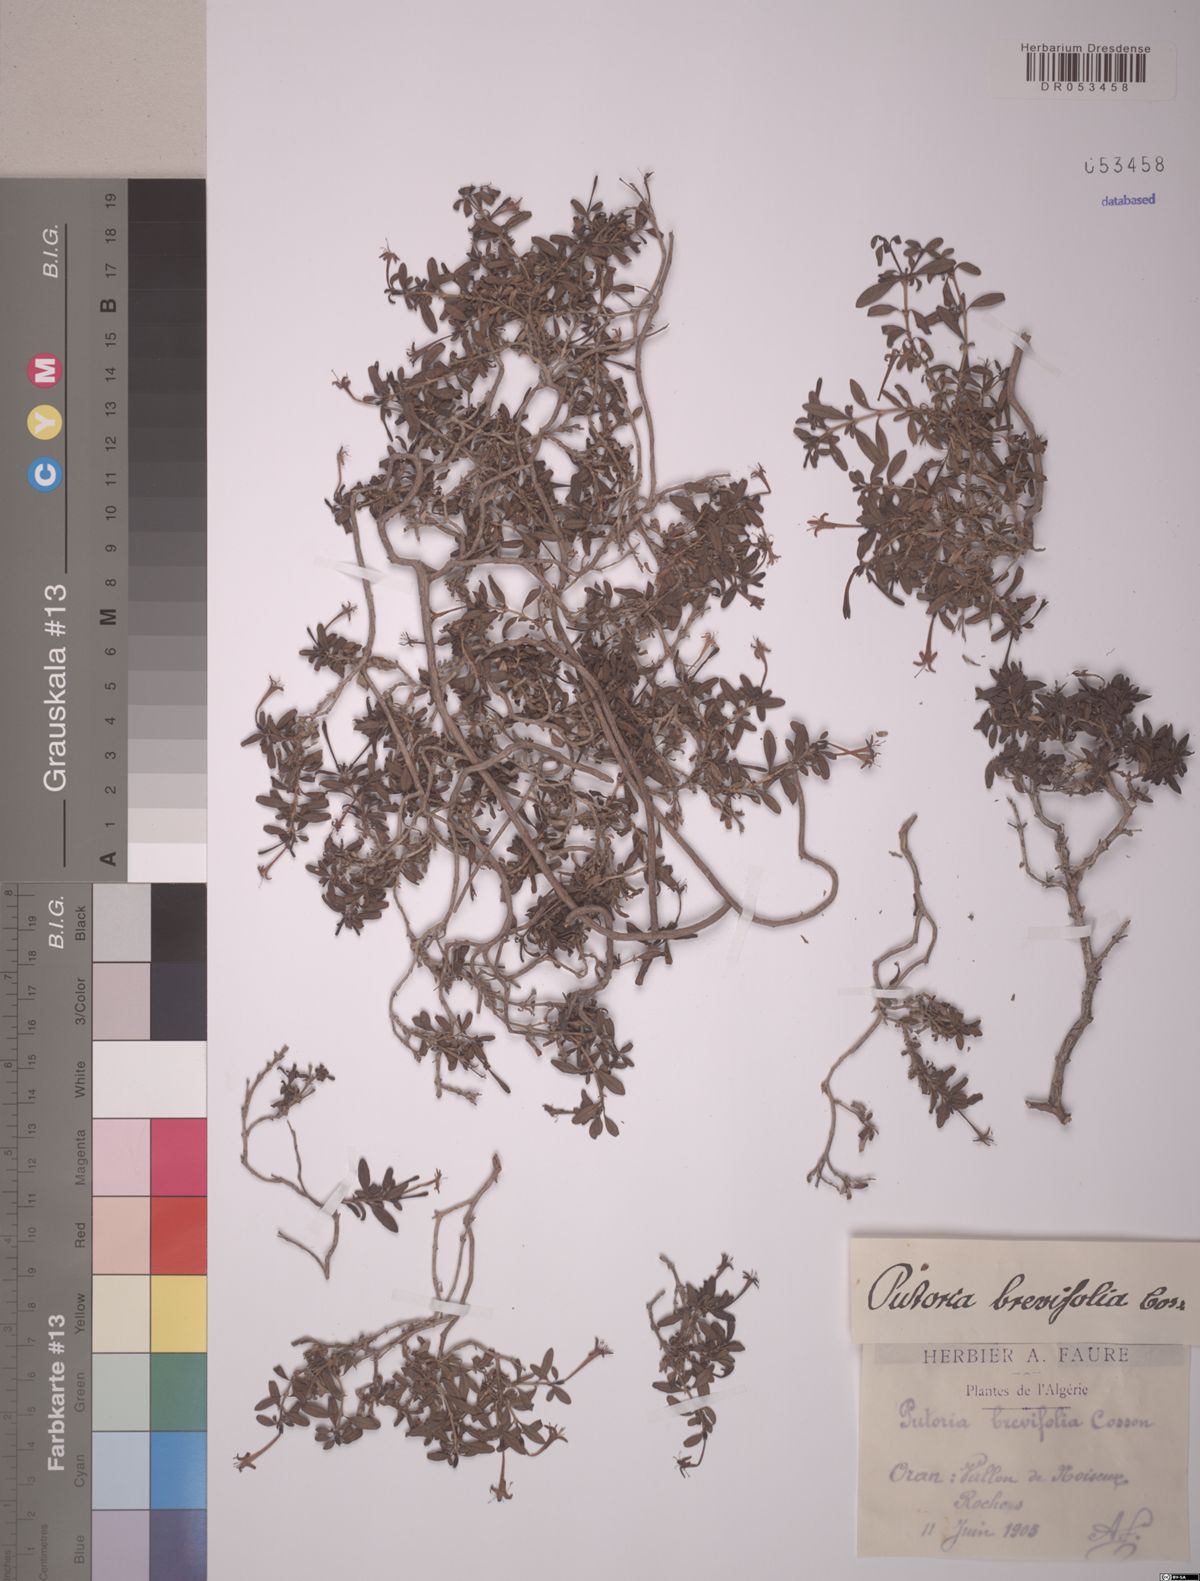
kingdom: Plantae
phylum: Tracheophyta
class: Magnoliopsida
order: Gentianales
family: Rubiaceae
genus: Plocama
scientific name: Plocama brevifolia
